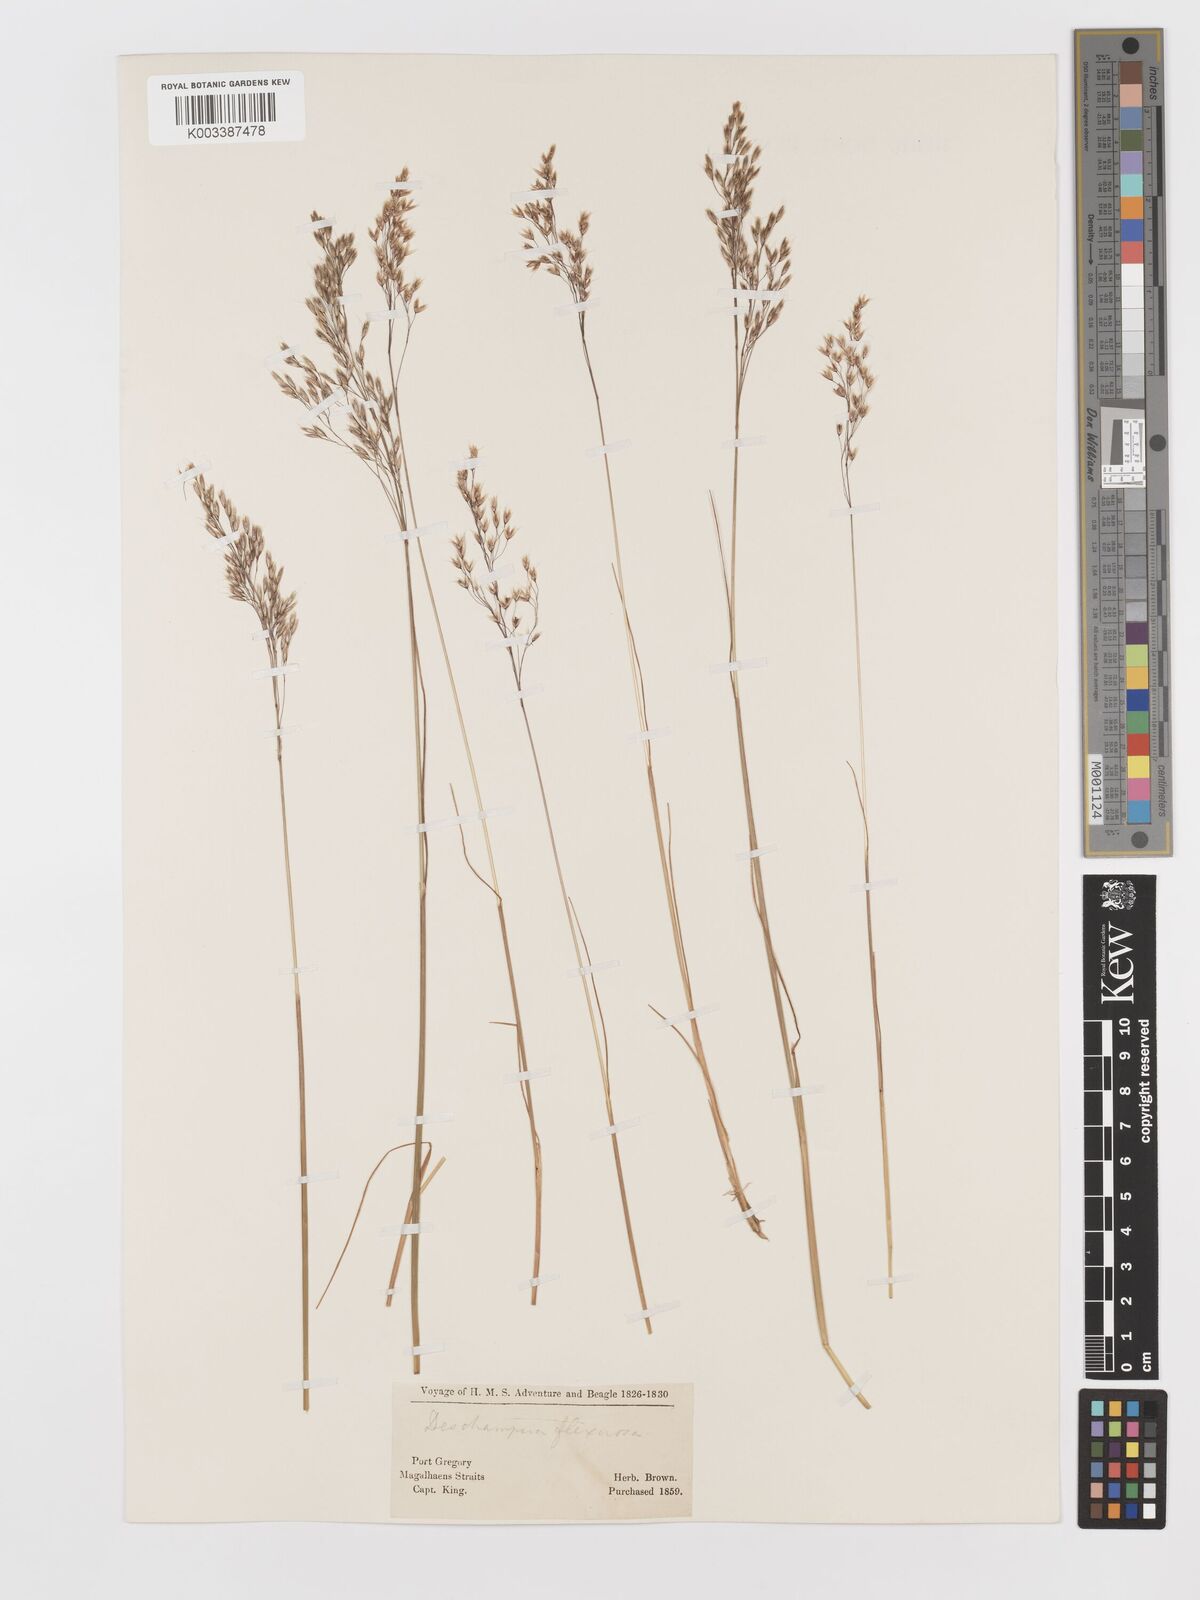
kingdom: Plantae
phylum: Tracheophyta
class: Liliopsida
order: Poales
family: Poaceae
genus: Avenella
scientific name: Avenella flexuosa
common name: Wavy hairgrass
